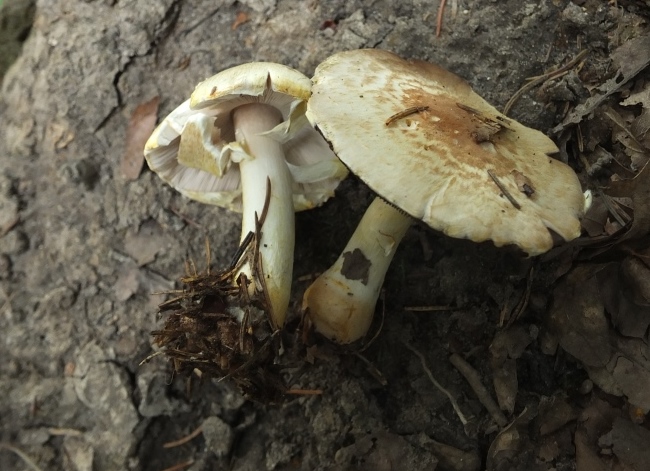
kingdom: Fungi
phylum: Basidiomycota
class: Agaricomycetes
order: Agaricales
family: Agaricaceae
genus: Agaricus
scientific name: Agaricus brunneolus
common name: purpur-champignon
